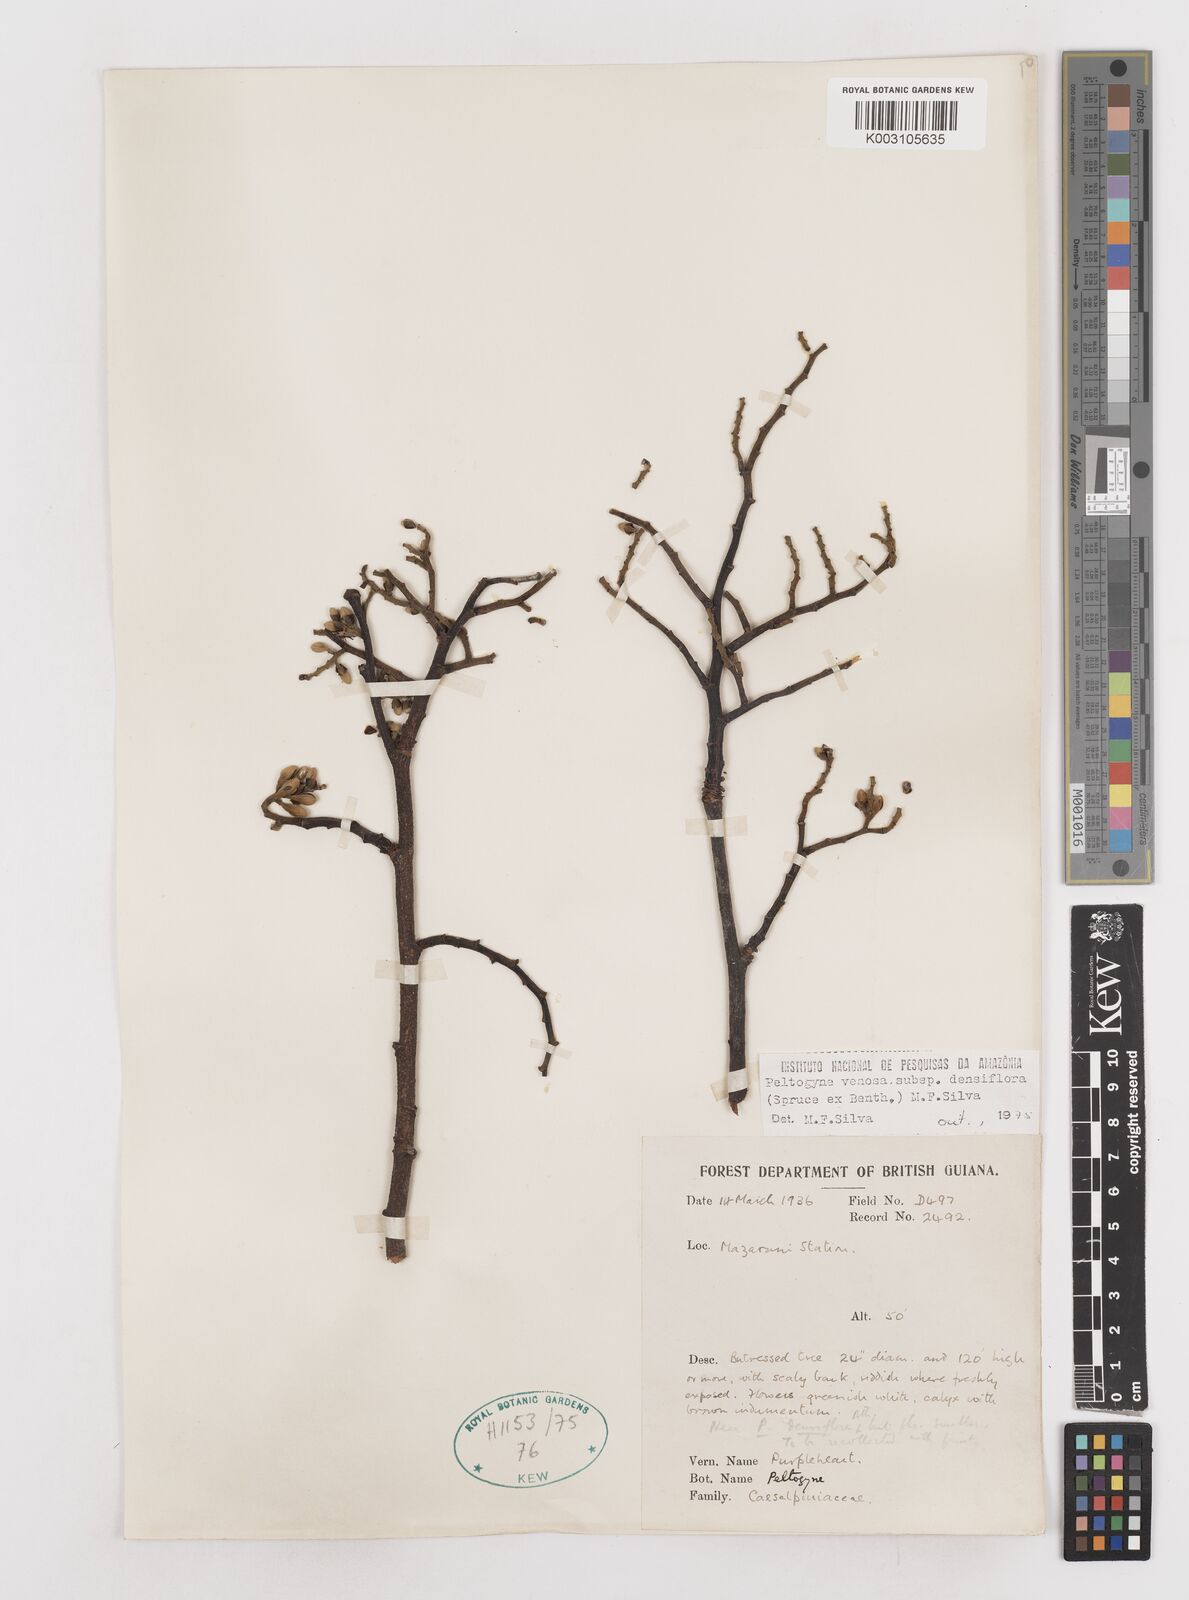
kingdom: Plantae
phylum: Tracheophyta
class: Magnoliopsida
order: Fabales
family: Fabaceae
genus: Peltogyne
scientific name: Peltogyne venosa
